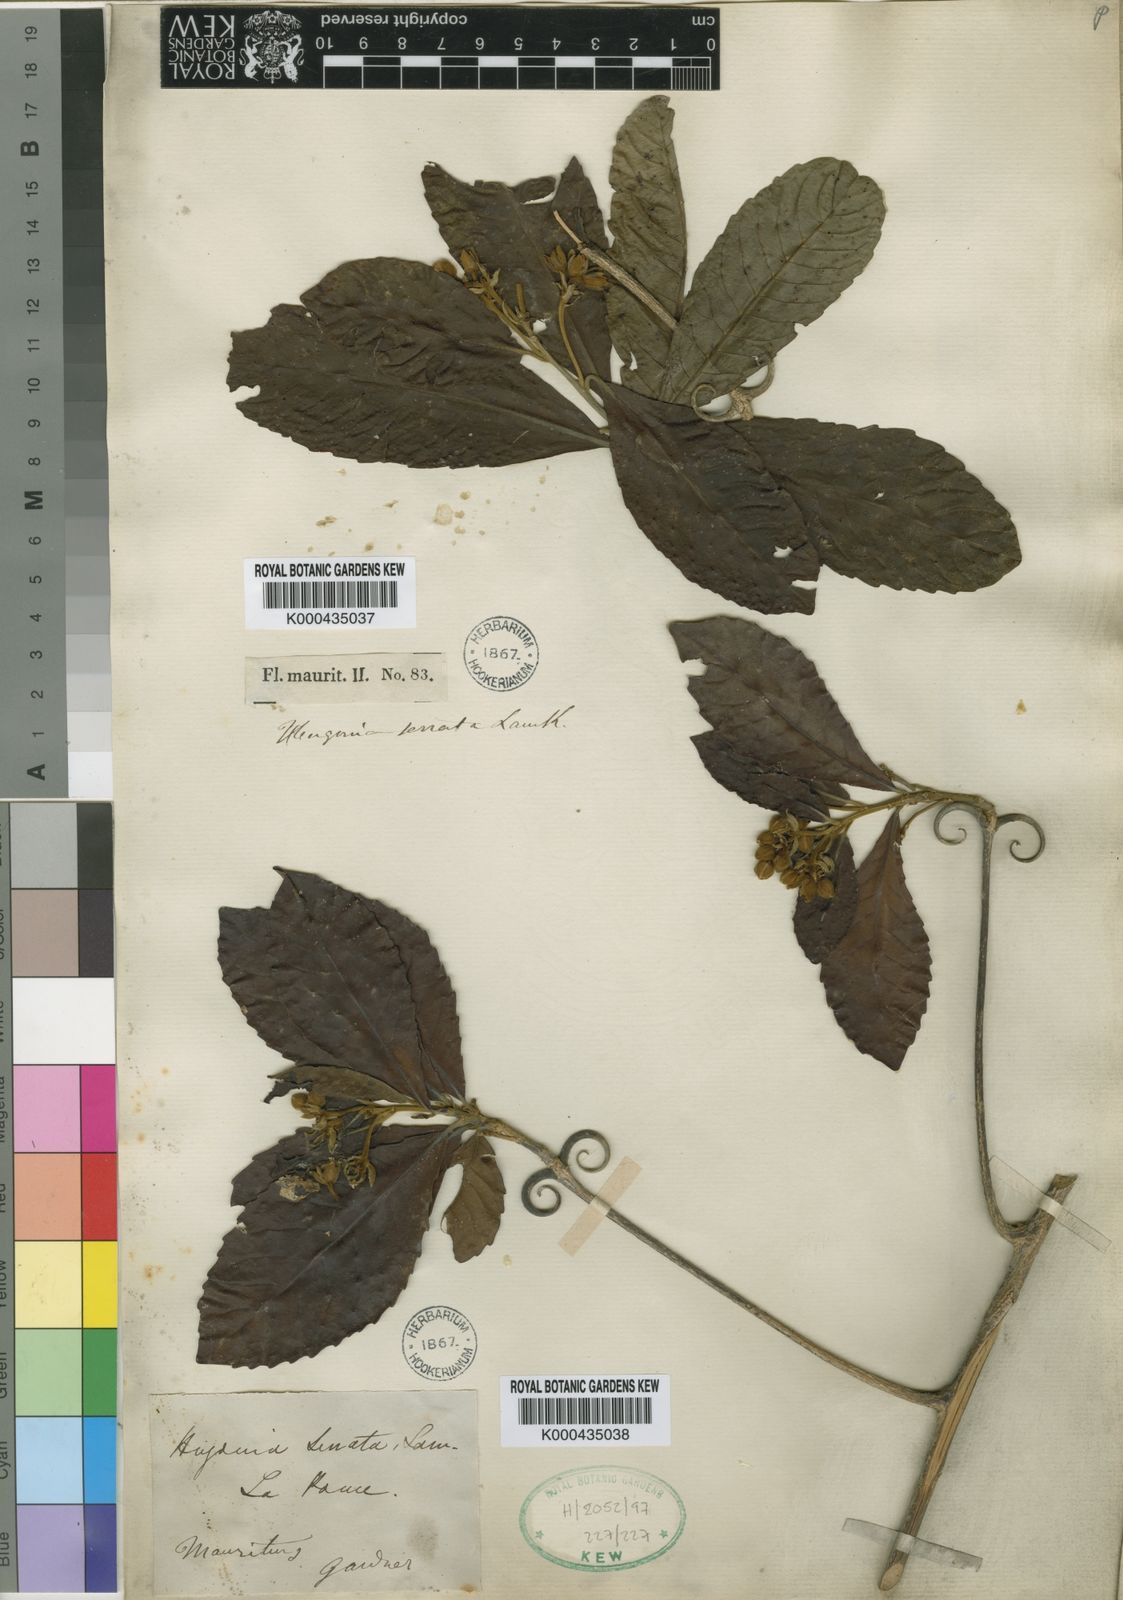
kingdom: Plantae
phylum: Tracheophyta
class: Magnoliopsida
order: Malpighiales
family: Linaceae
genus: Hugonia
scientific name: Hugonia serrata
